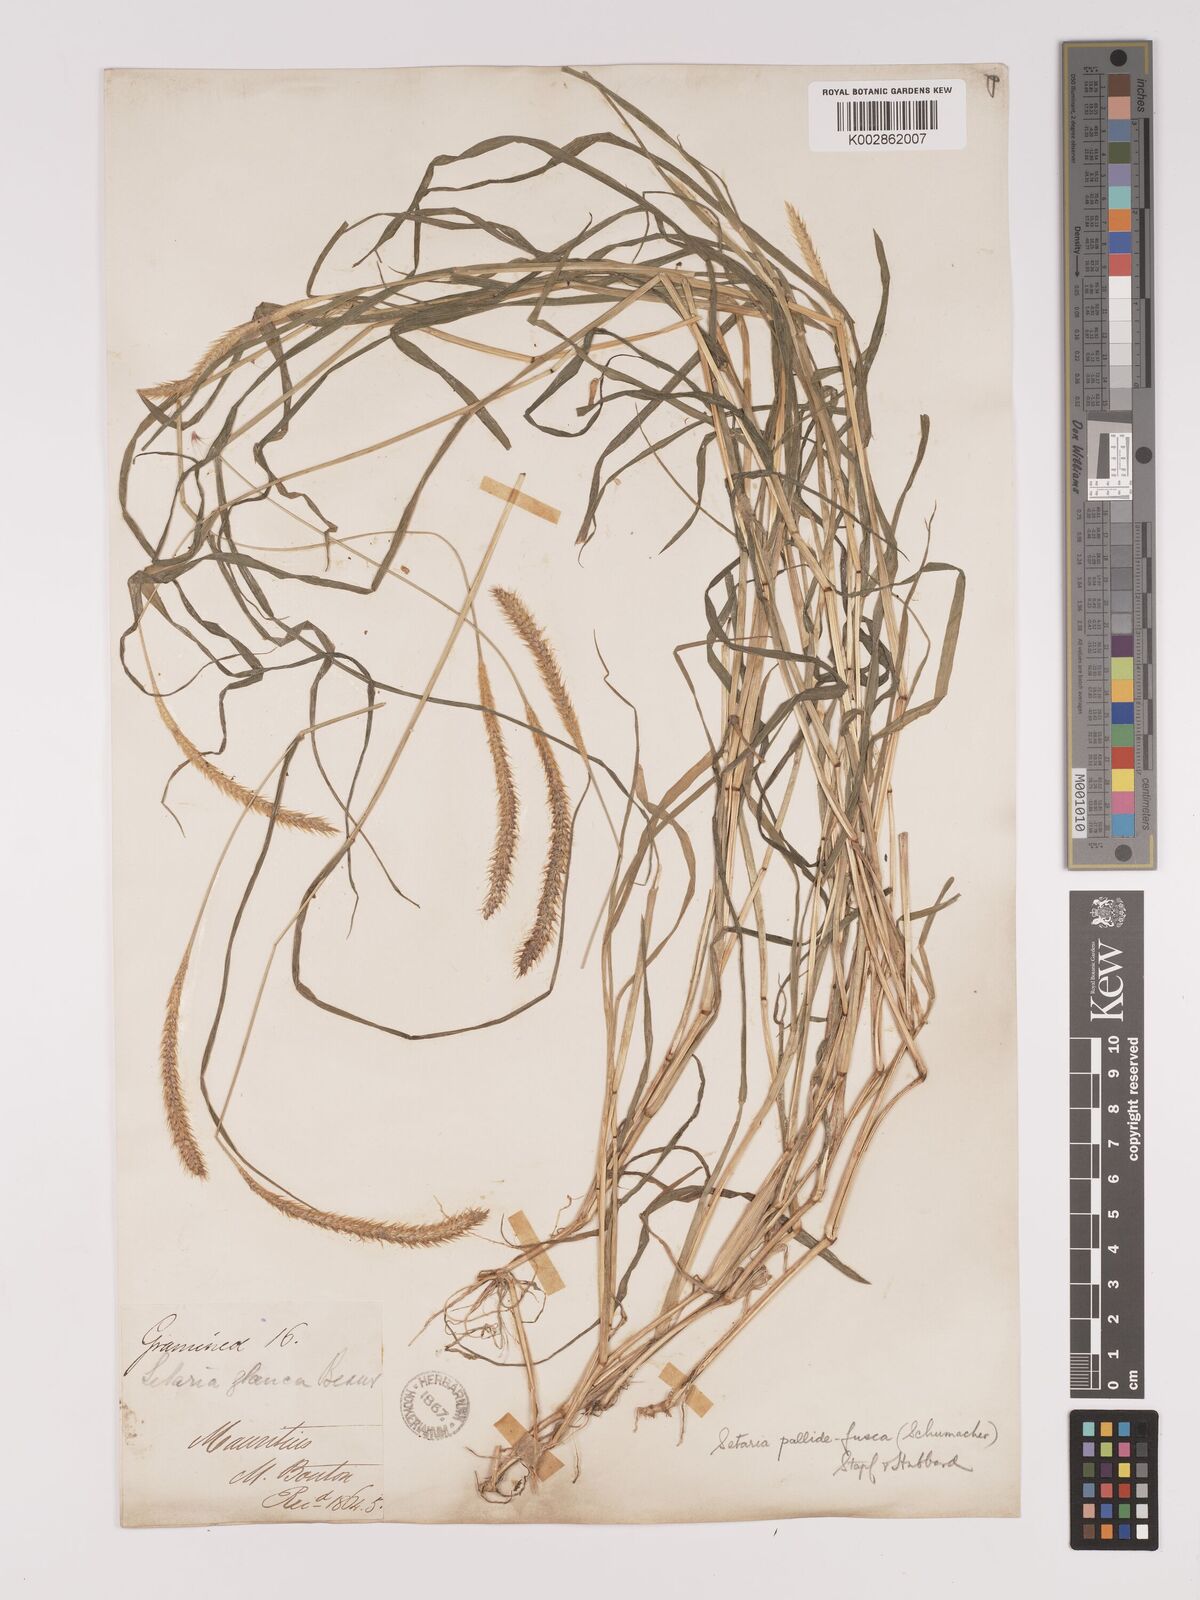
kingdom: Plantae
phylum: Tracheophyta
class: Liliopsida
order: Poales
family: Poaceae
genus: Setaria
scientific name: Setaria pumila
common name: Yellow bristle-grass
